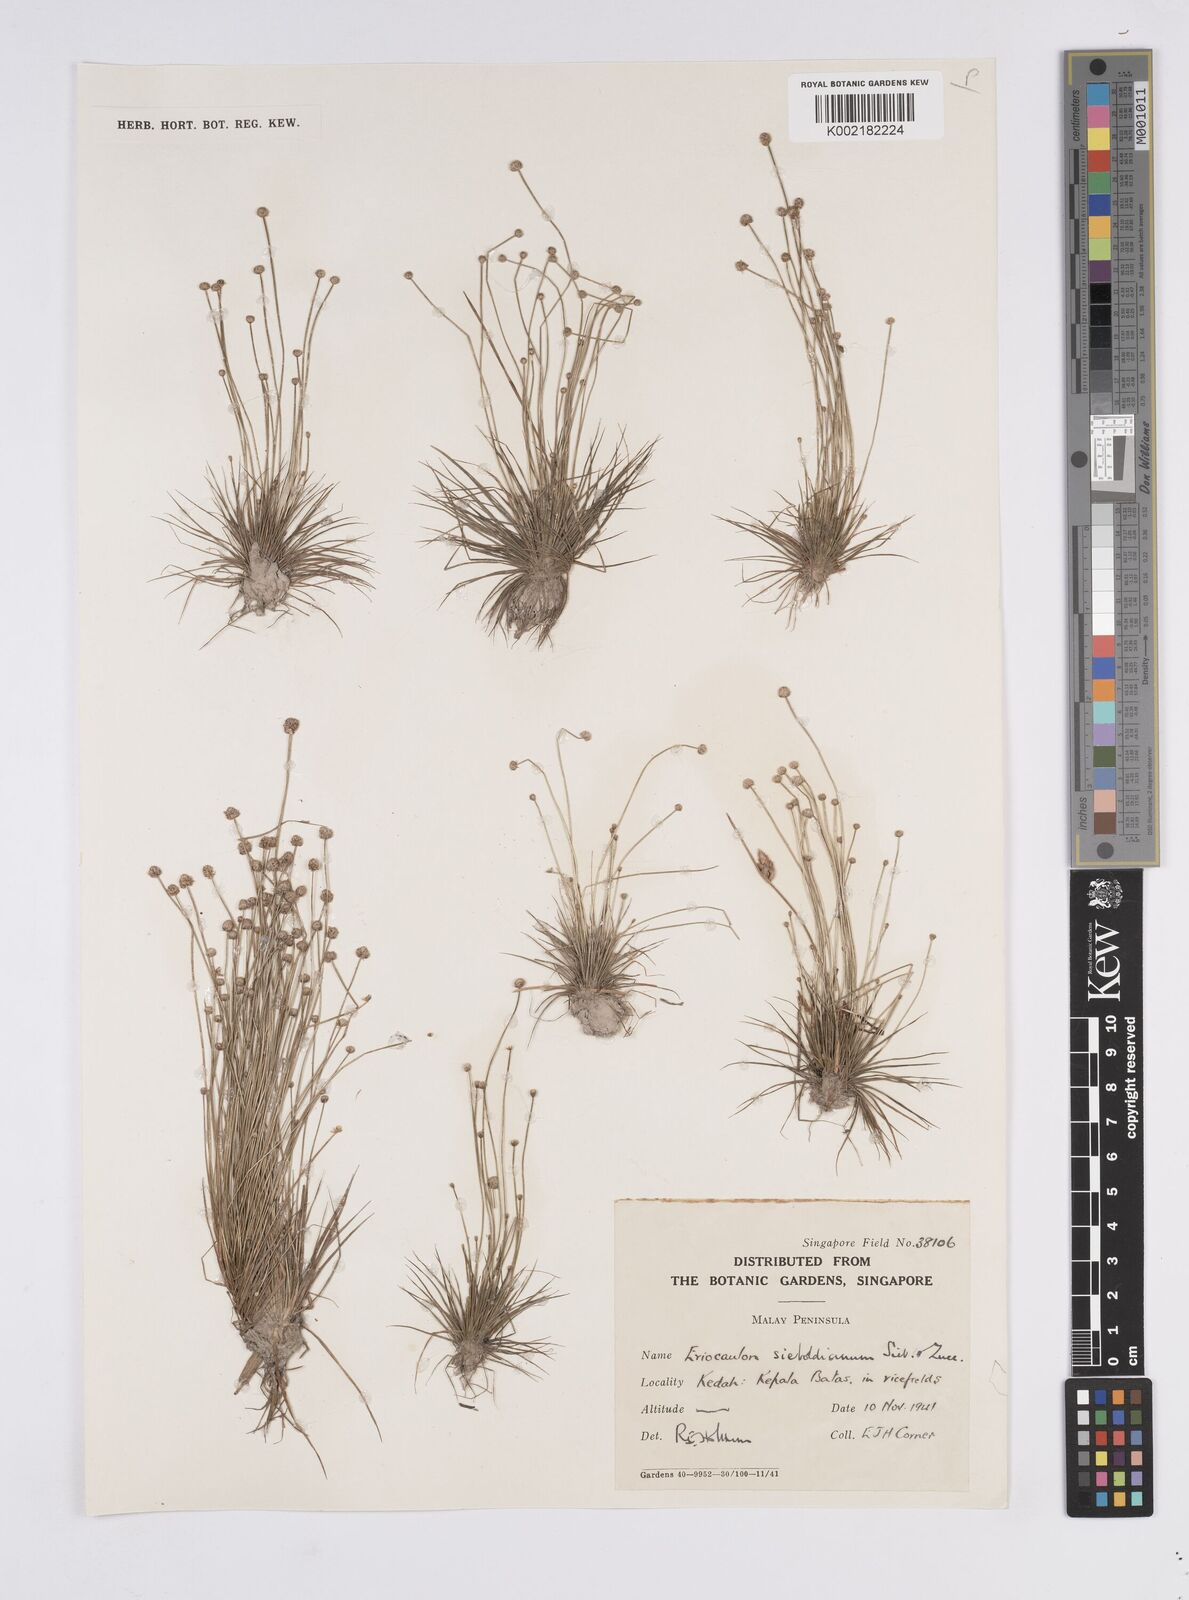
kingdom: Plantae
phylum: Tracheophyta
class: Liliopsida
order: Poales
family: Eriocaulaceae
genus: Eriocaulon
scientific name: Eriocaulon willdenovianum
